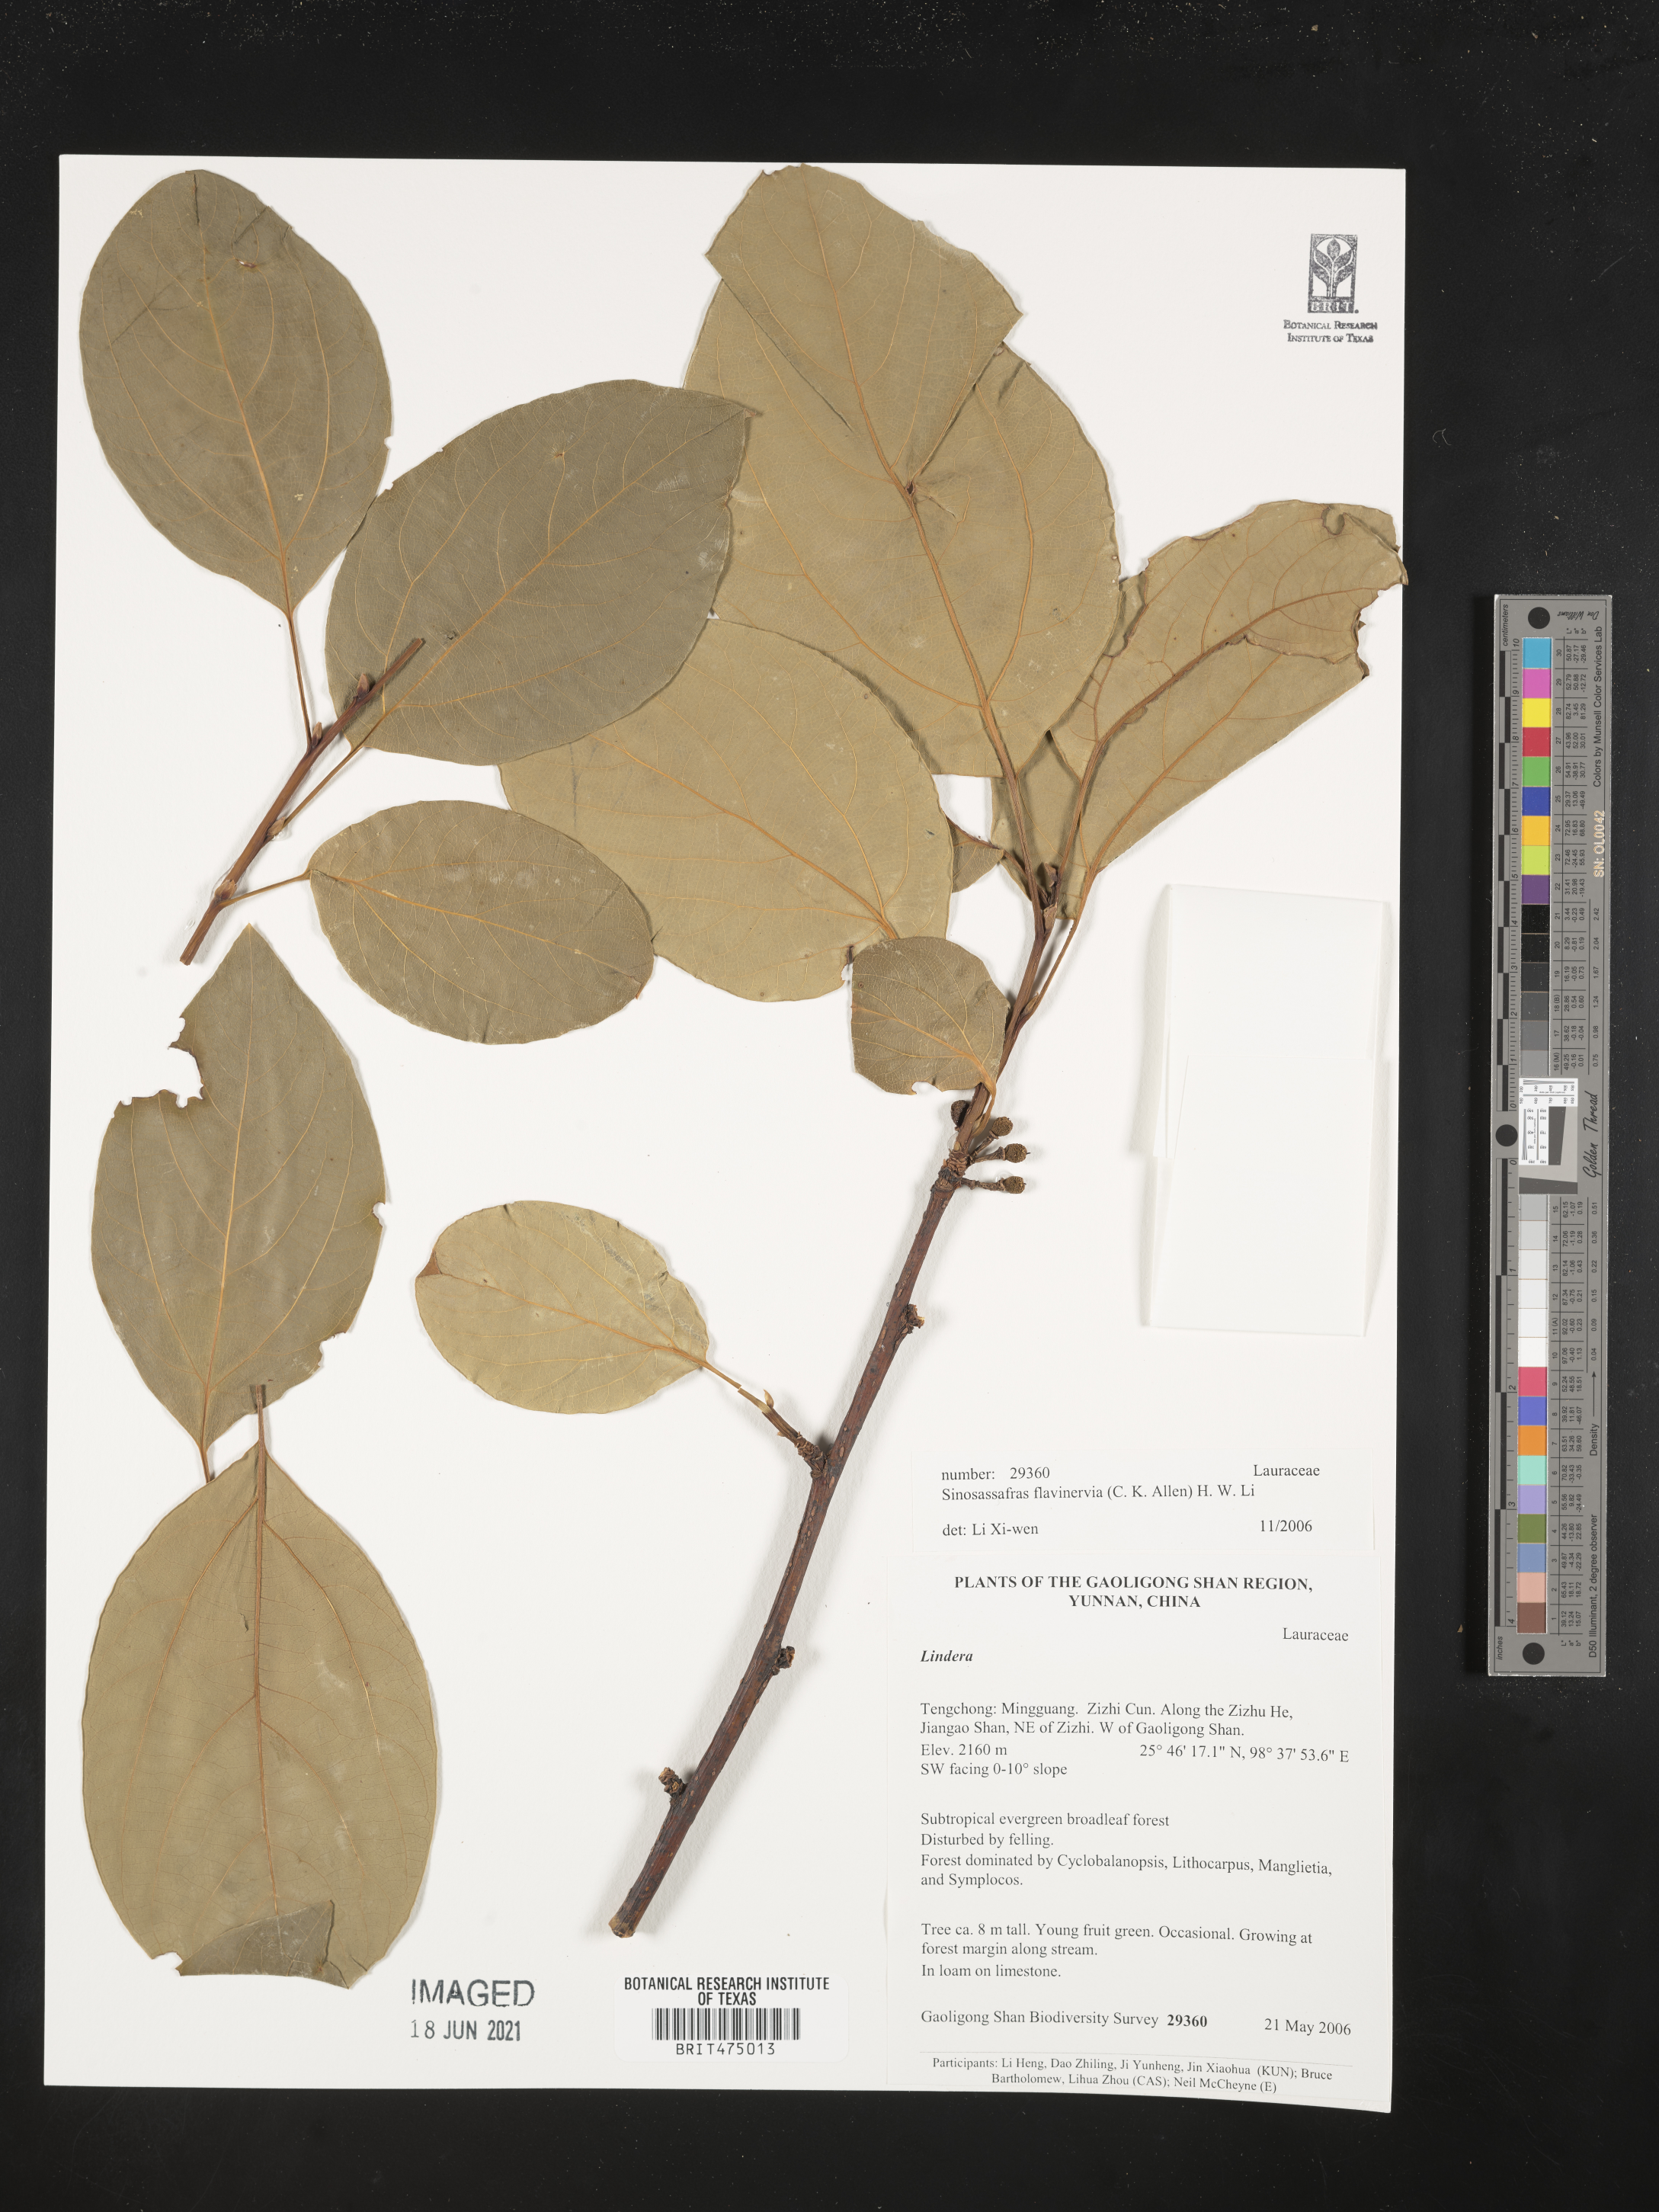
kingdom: Plantae
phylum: Tracheophyta
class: Magnoliopsida
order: Laurales
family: Lauraceae
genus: Lindera
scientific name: Lindera flavinervia
